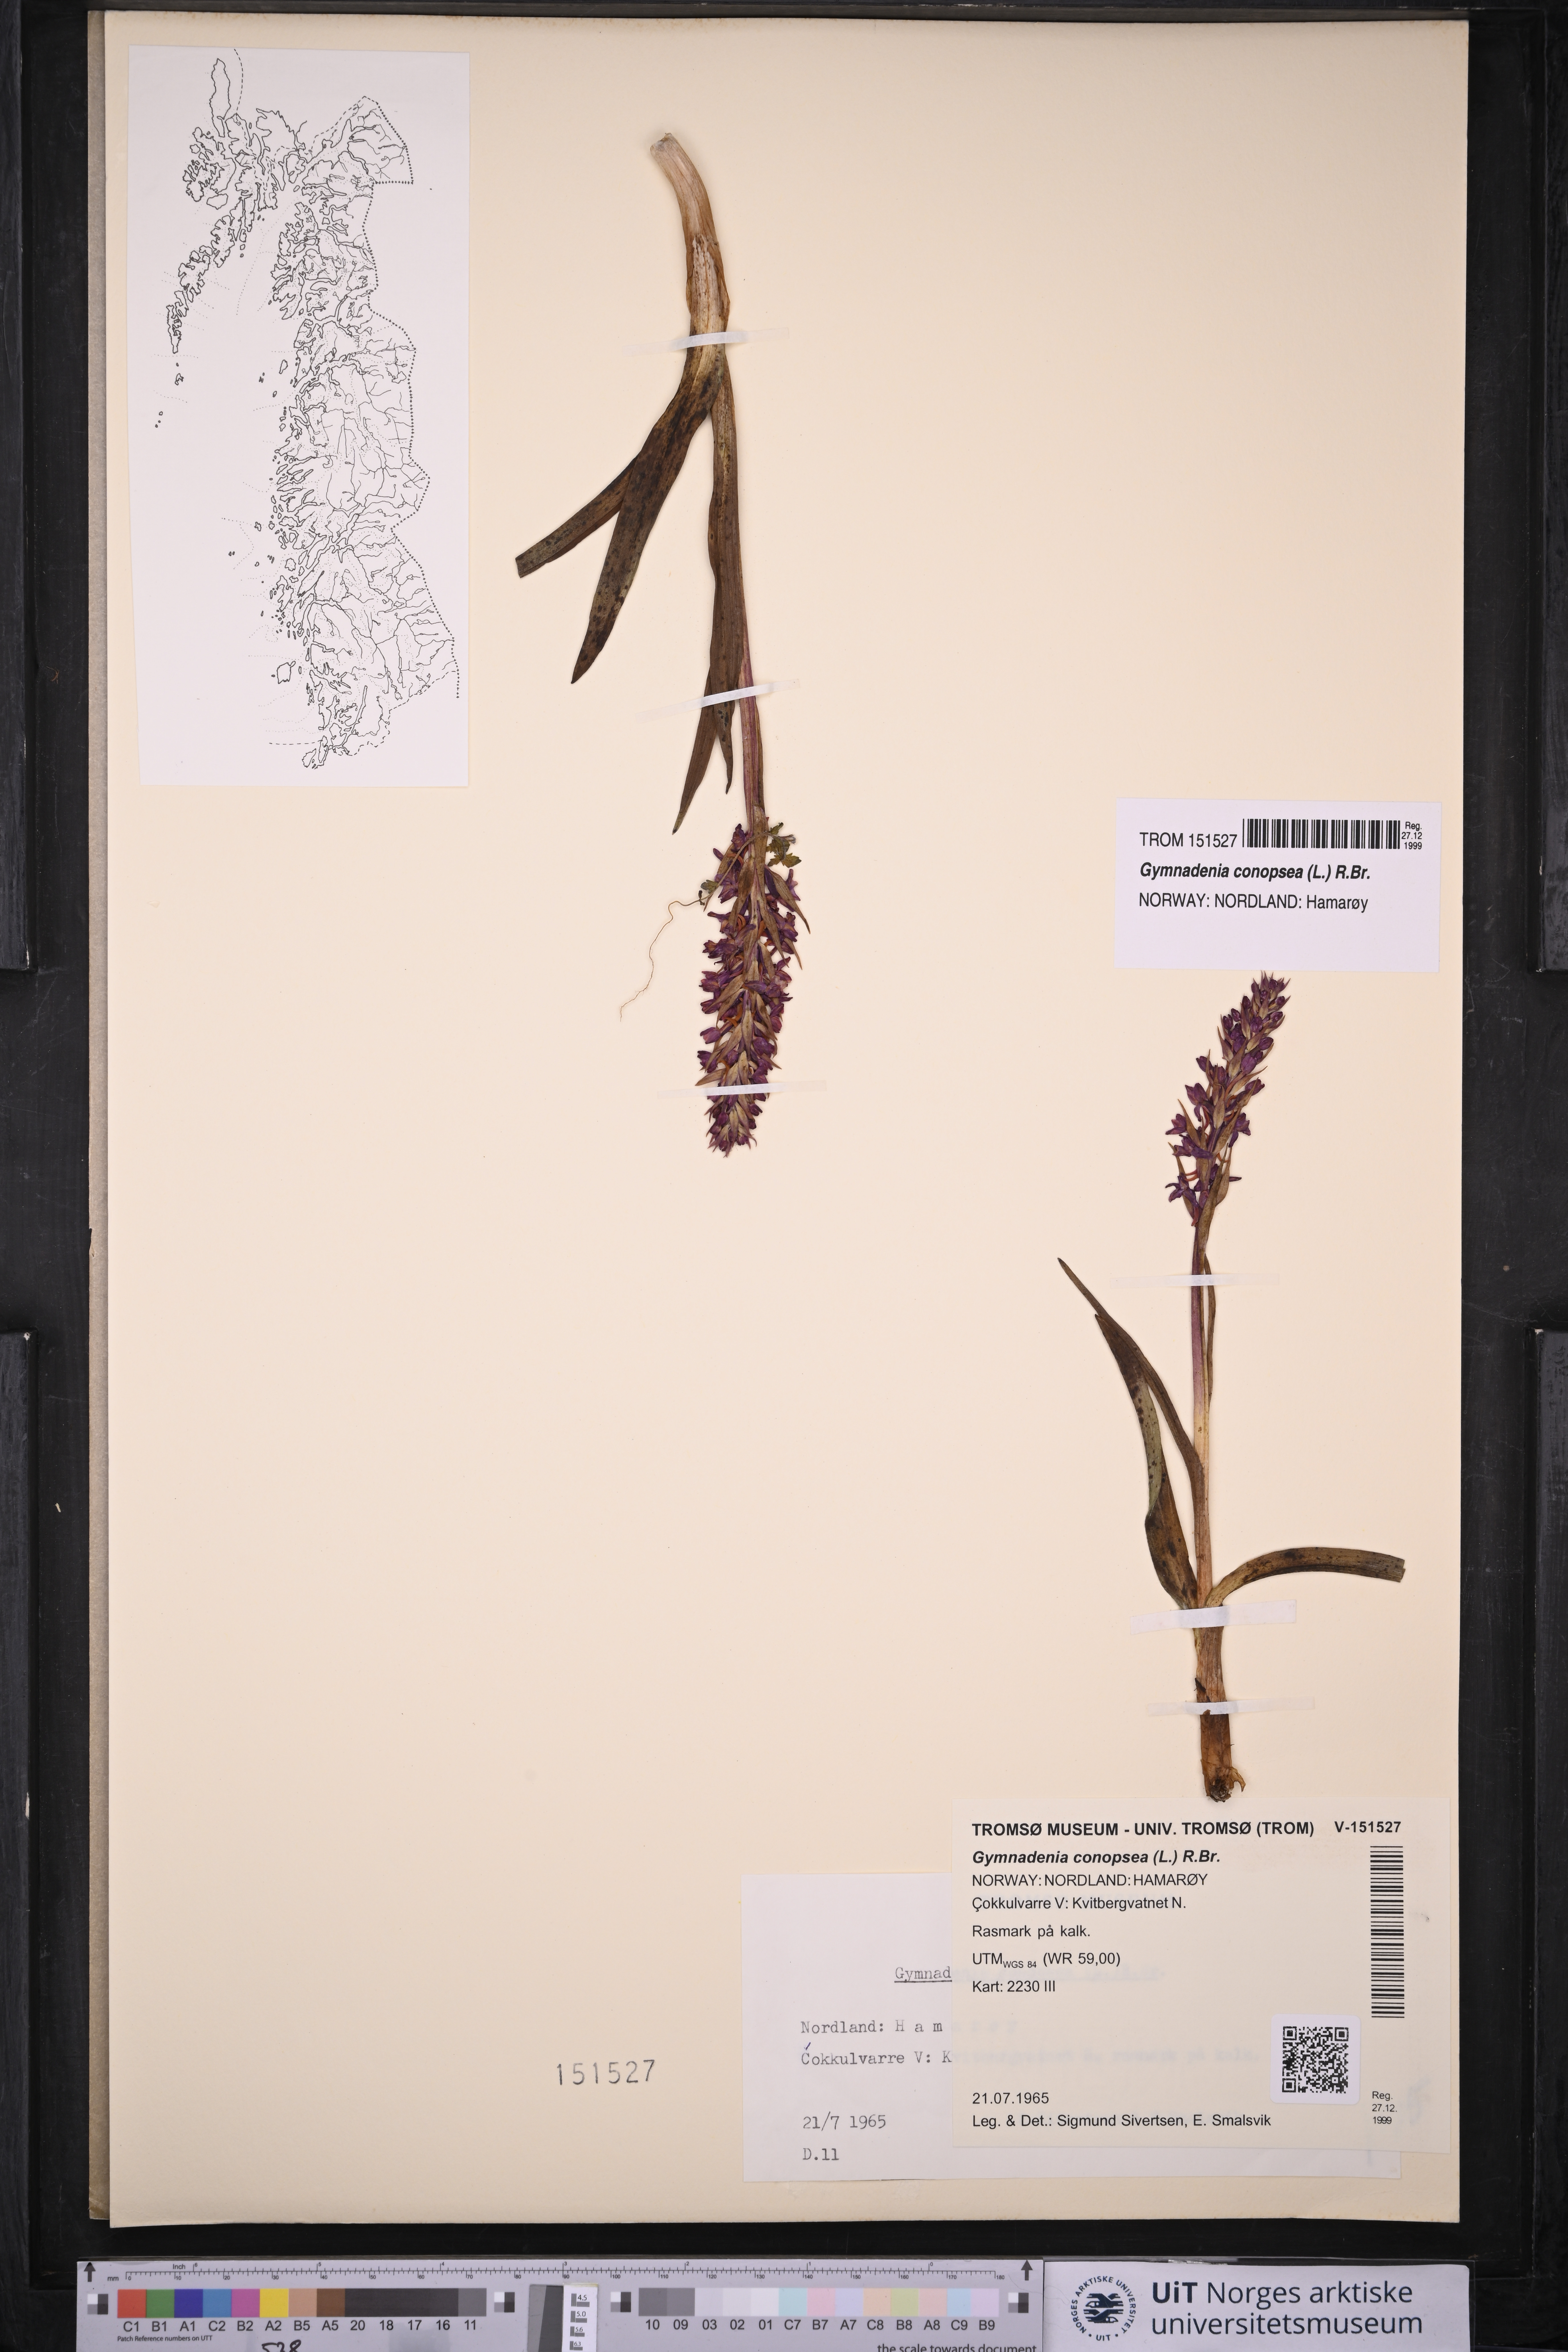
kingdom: Plantae
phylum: Tracheophyta
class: Liliopsida
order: Asparagales
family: Orchidaceae
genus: Gymnadenia
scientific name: Gymnadenia conopsea
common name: Fragrant orchid
